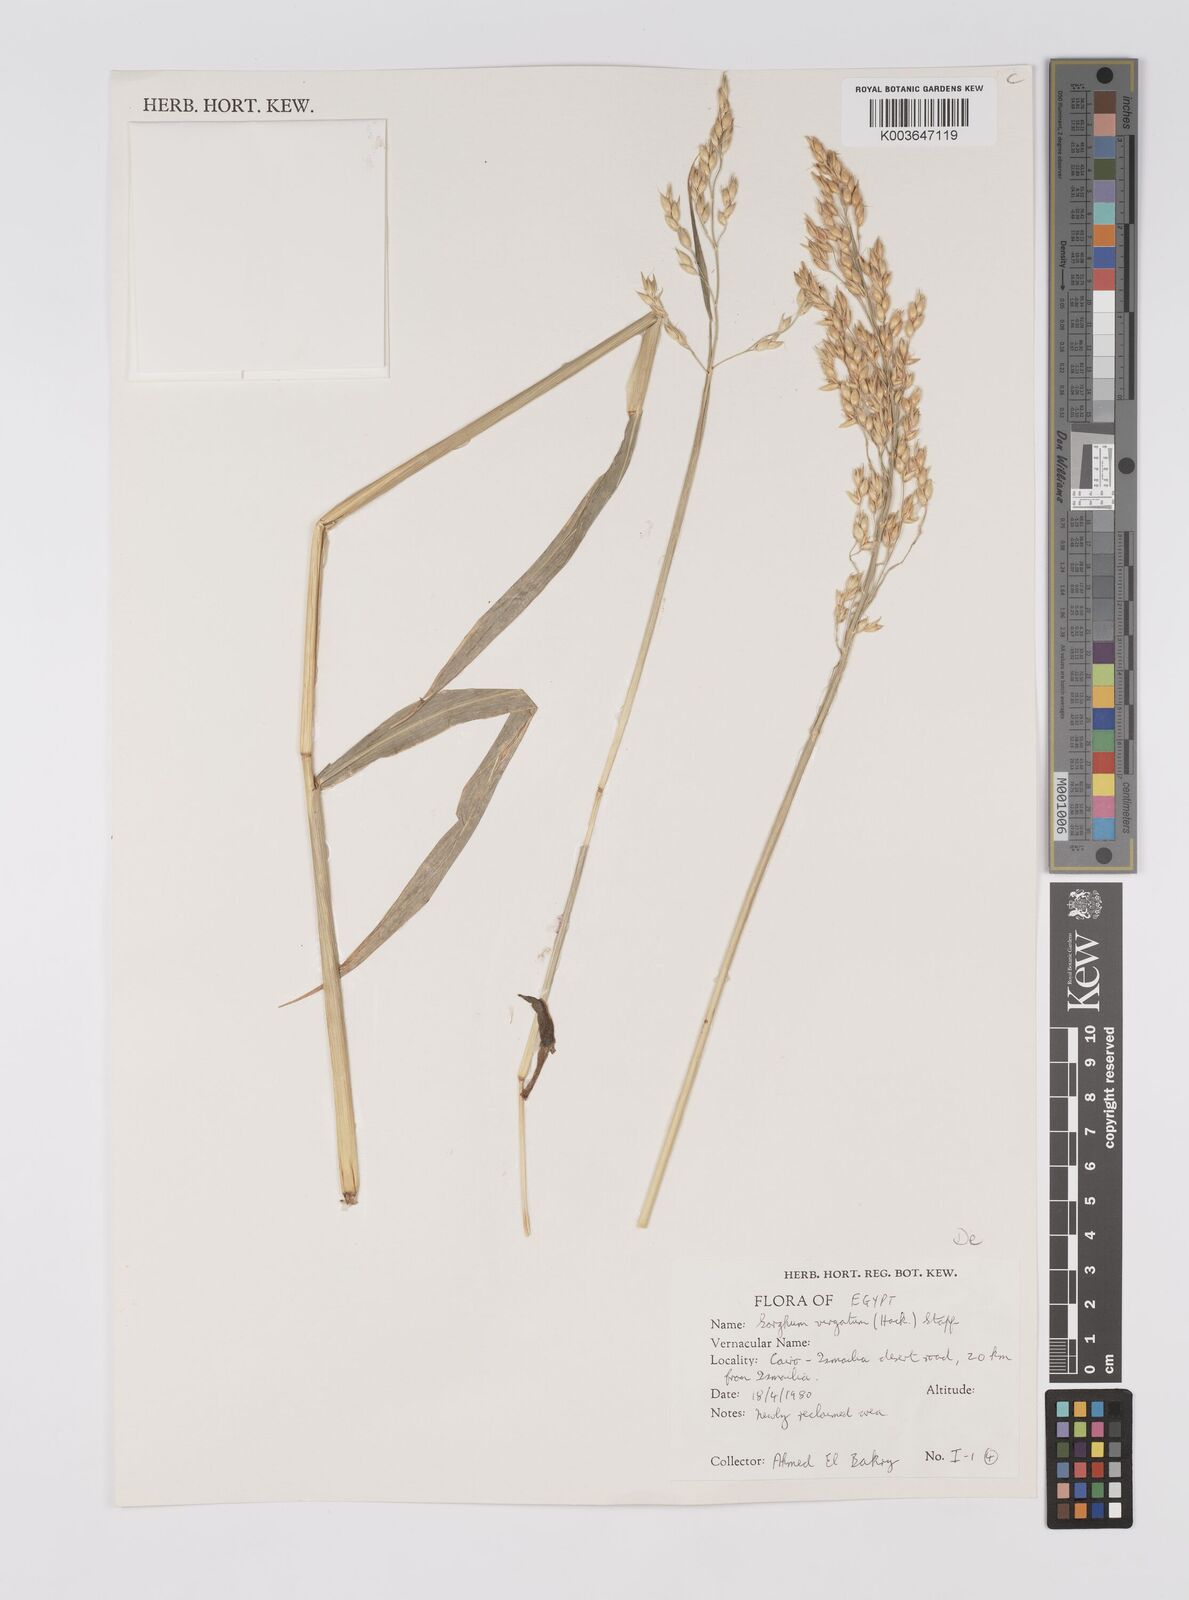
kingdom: Plantae
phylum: Tracheophyta
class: Liliopsida
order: Poales
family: Poaceae
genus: Sorghum
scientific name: Sorghum drummondii
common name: Sudangrass
